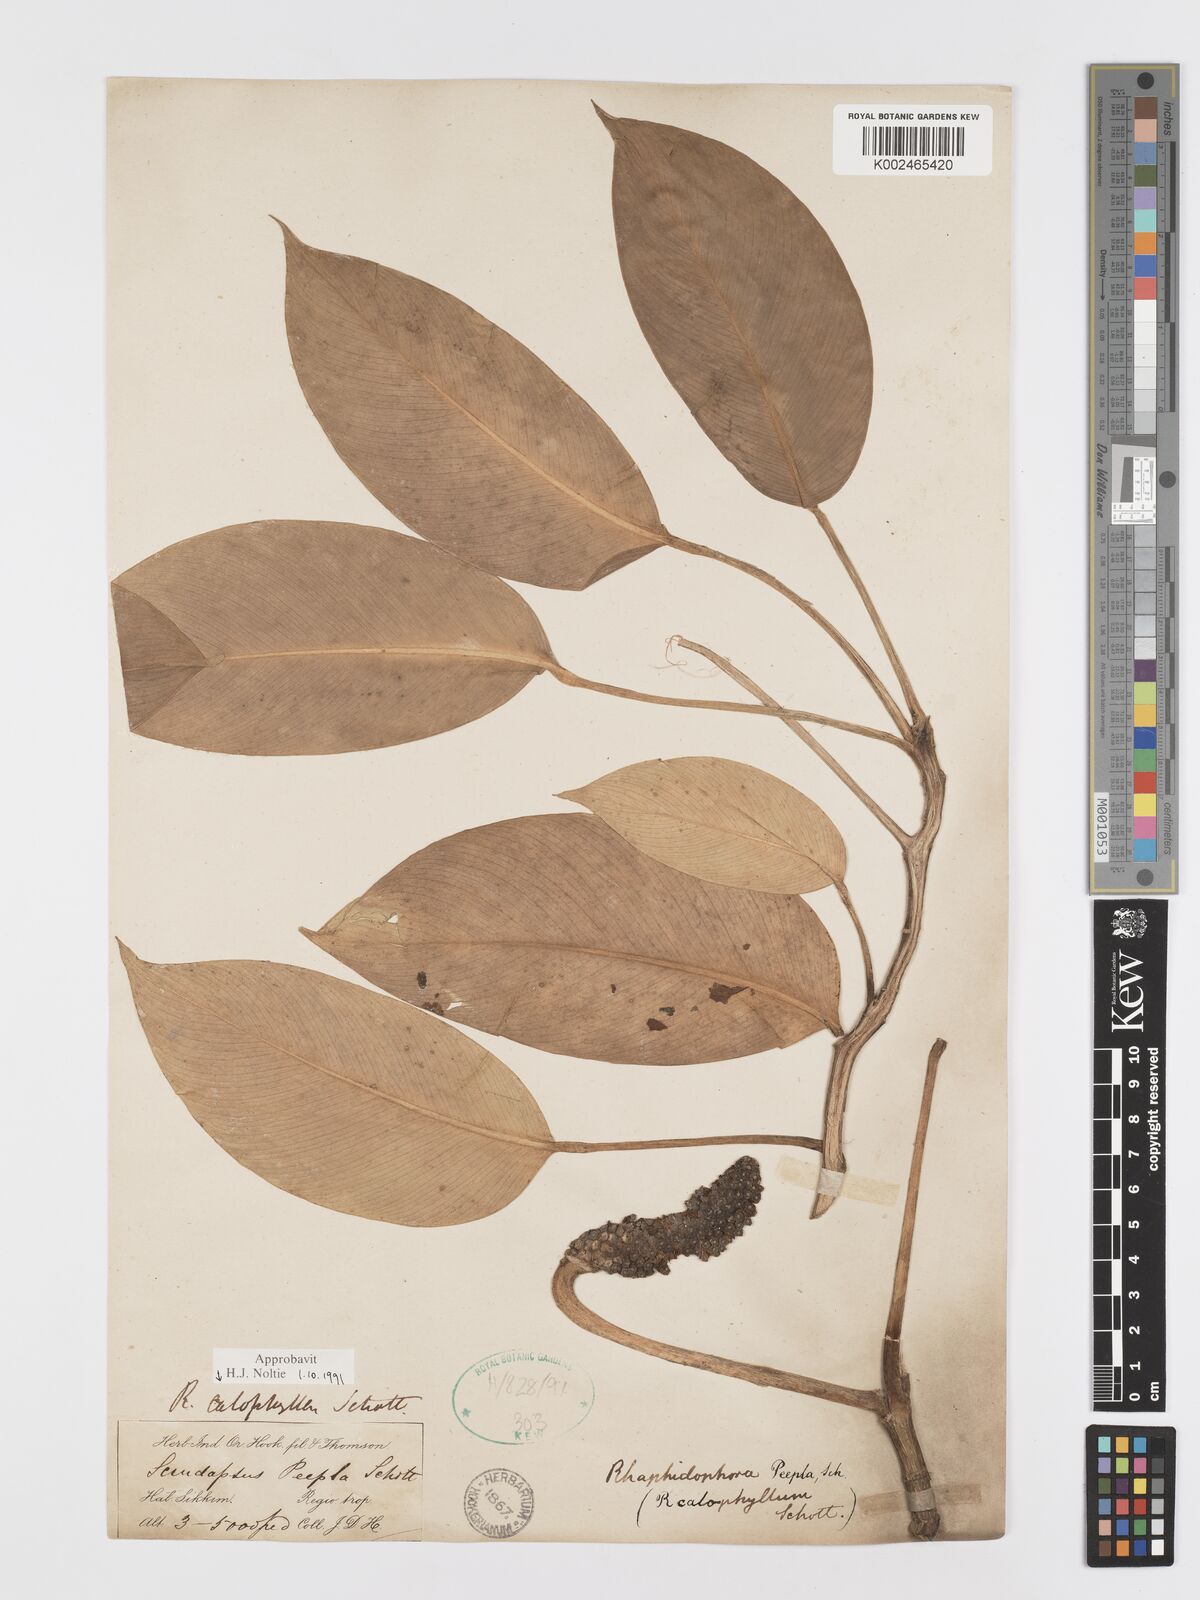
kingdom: Plantae
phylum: Tracheophyta
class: Liliopsida
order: Alismatales
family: Araceae
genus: Rhaphidophora
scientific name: Rhaphidophora calophylla
